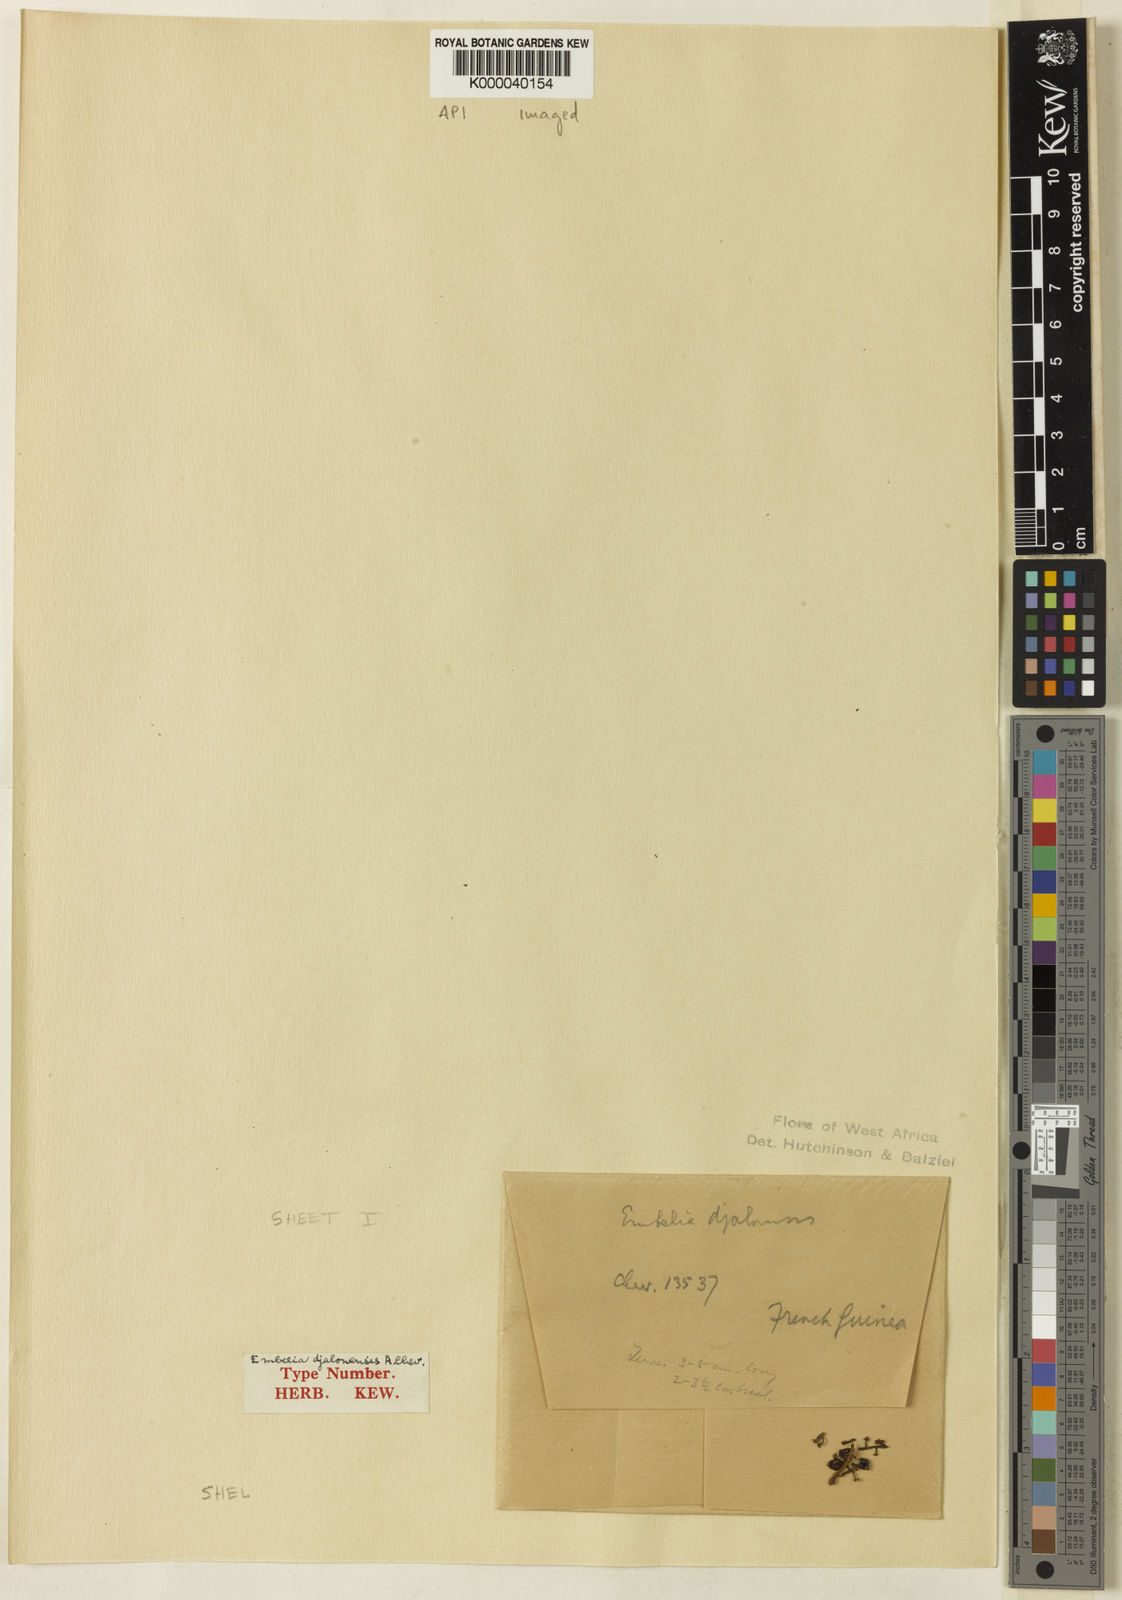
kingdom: Plantae
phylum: Tracheophyta
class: Magnoliopsida
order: Ericales
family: Primulaceae
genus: Embelia
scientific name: Embelia djalonensis
